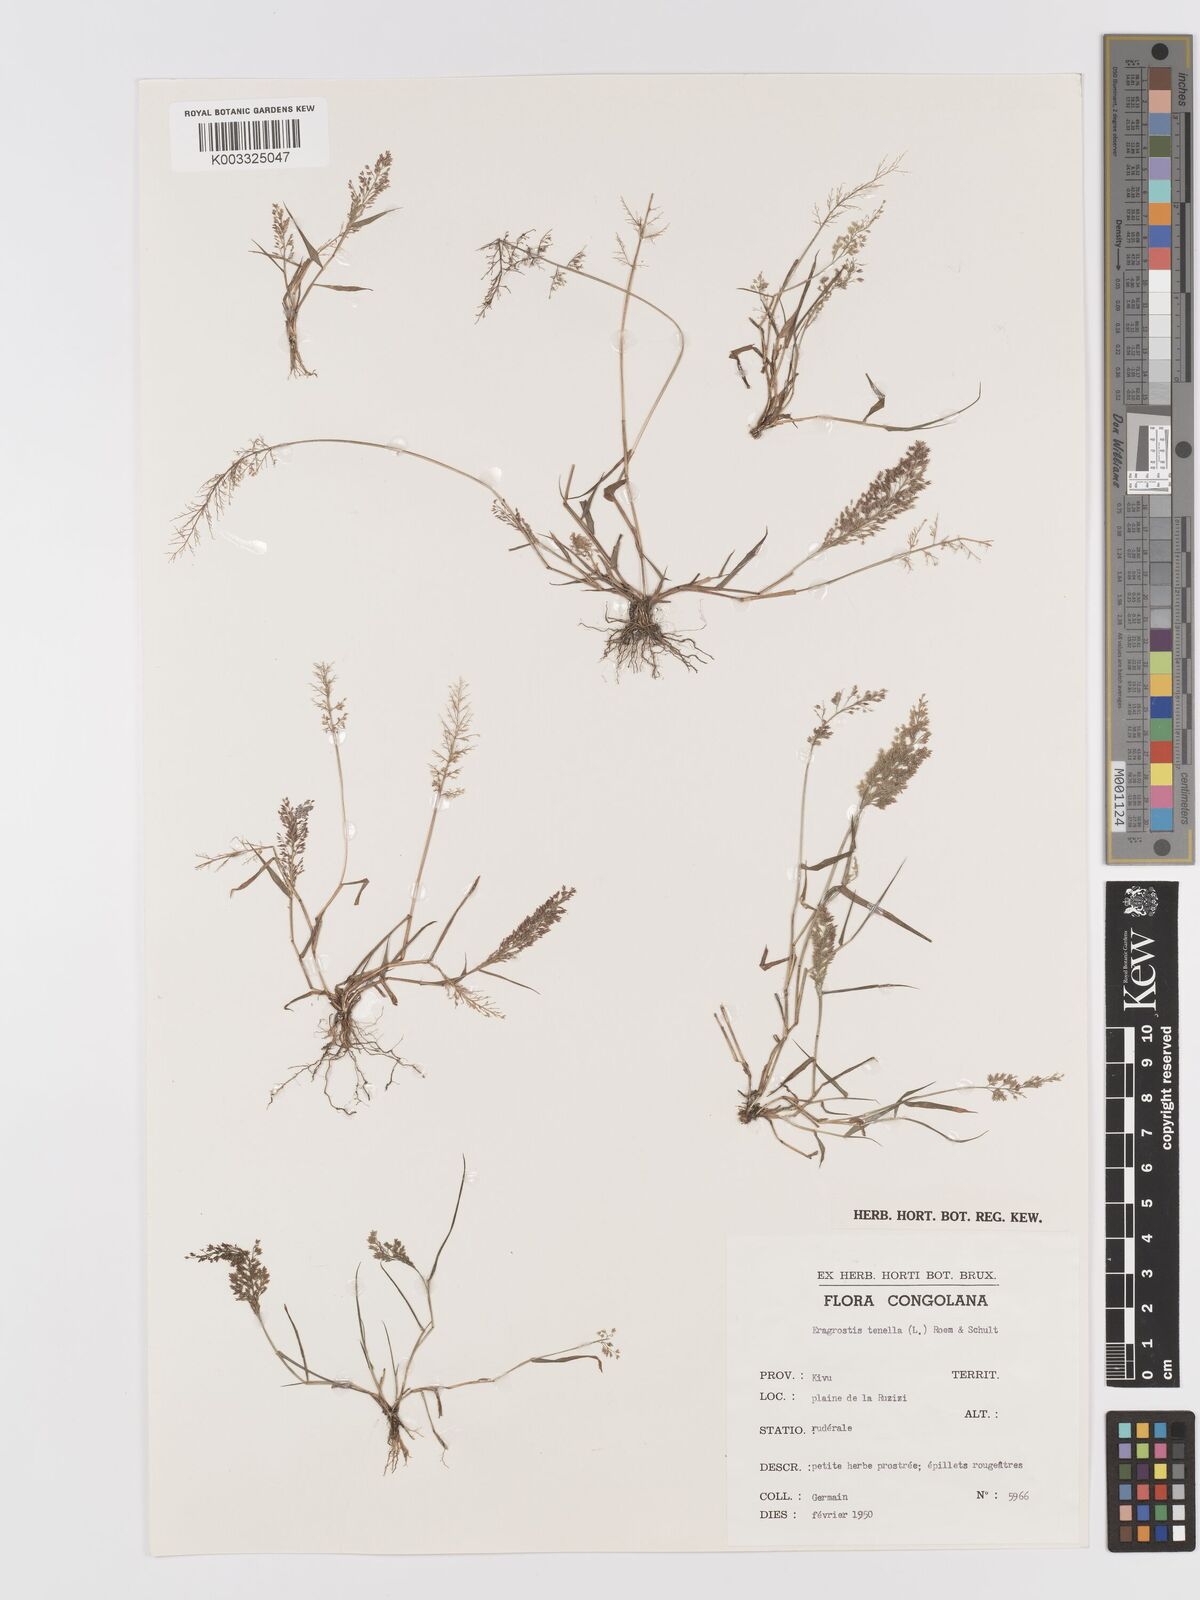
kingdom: Plantae
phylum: Tracheophyta
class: Liliopsida
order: Poales
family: Poaceae
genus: Eragrostis
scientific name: Eragrostis tenella
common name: Japanese lovegrass
